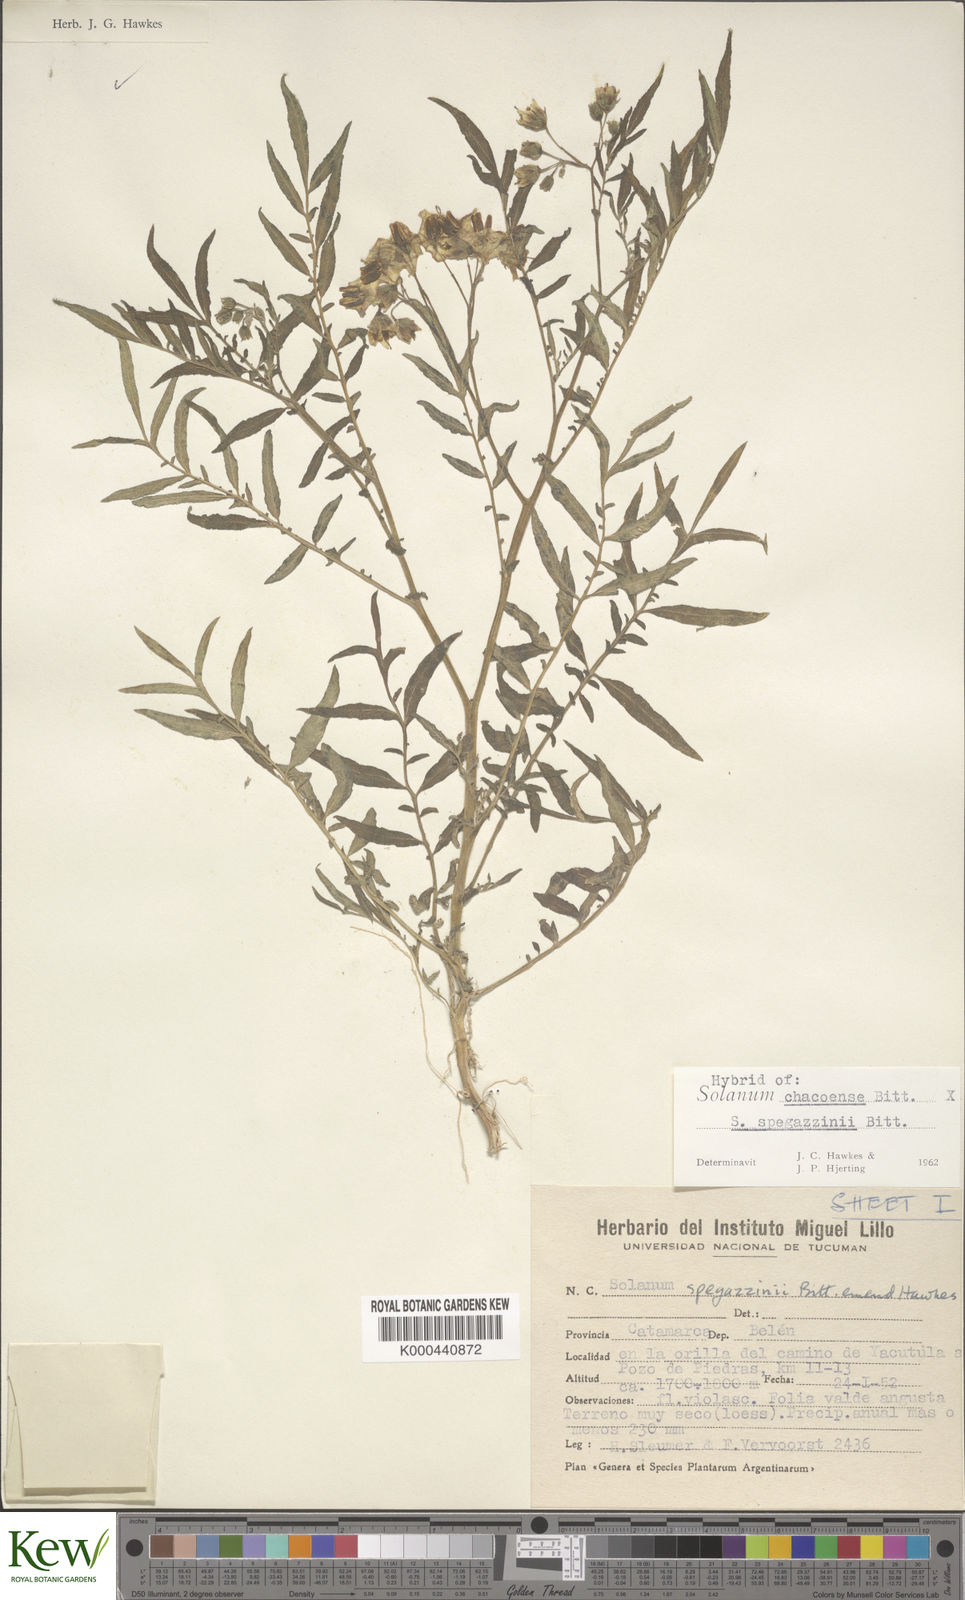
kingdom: Plantae
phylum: Tracheophyta
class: Magnoliopsida
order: Solanales
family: Solanaceae
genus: Solanum
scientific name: Solanum chacoense
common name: Chaco potato
